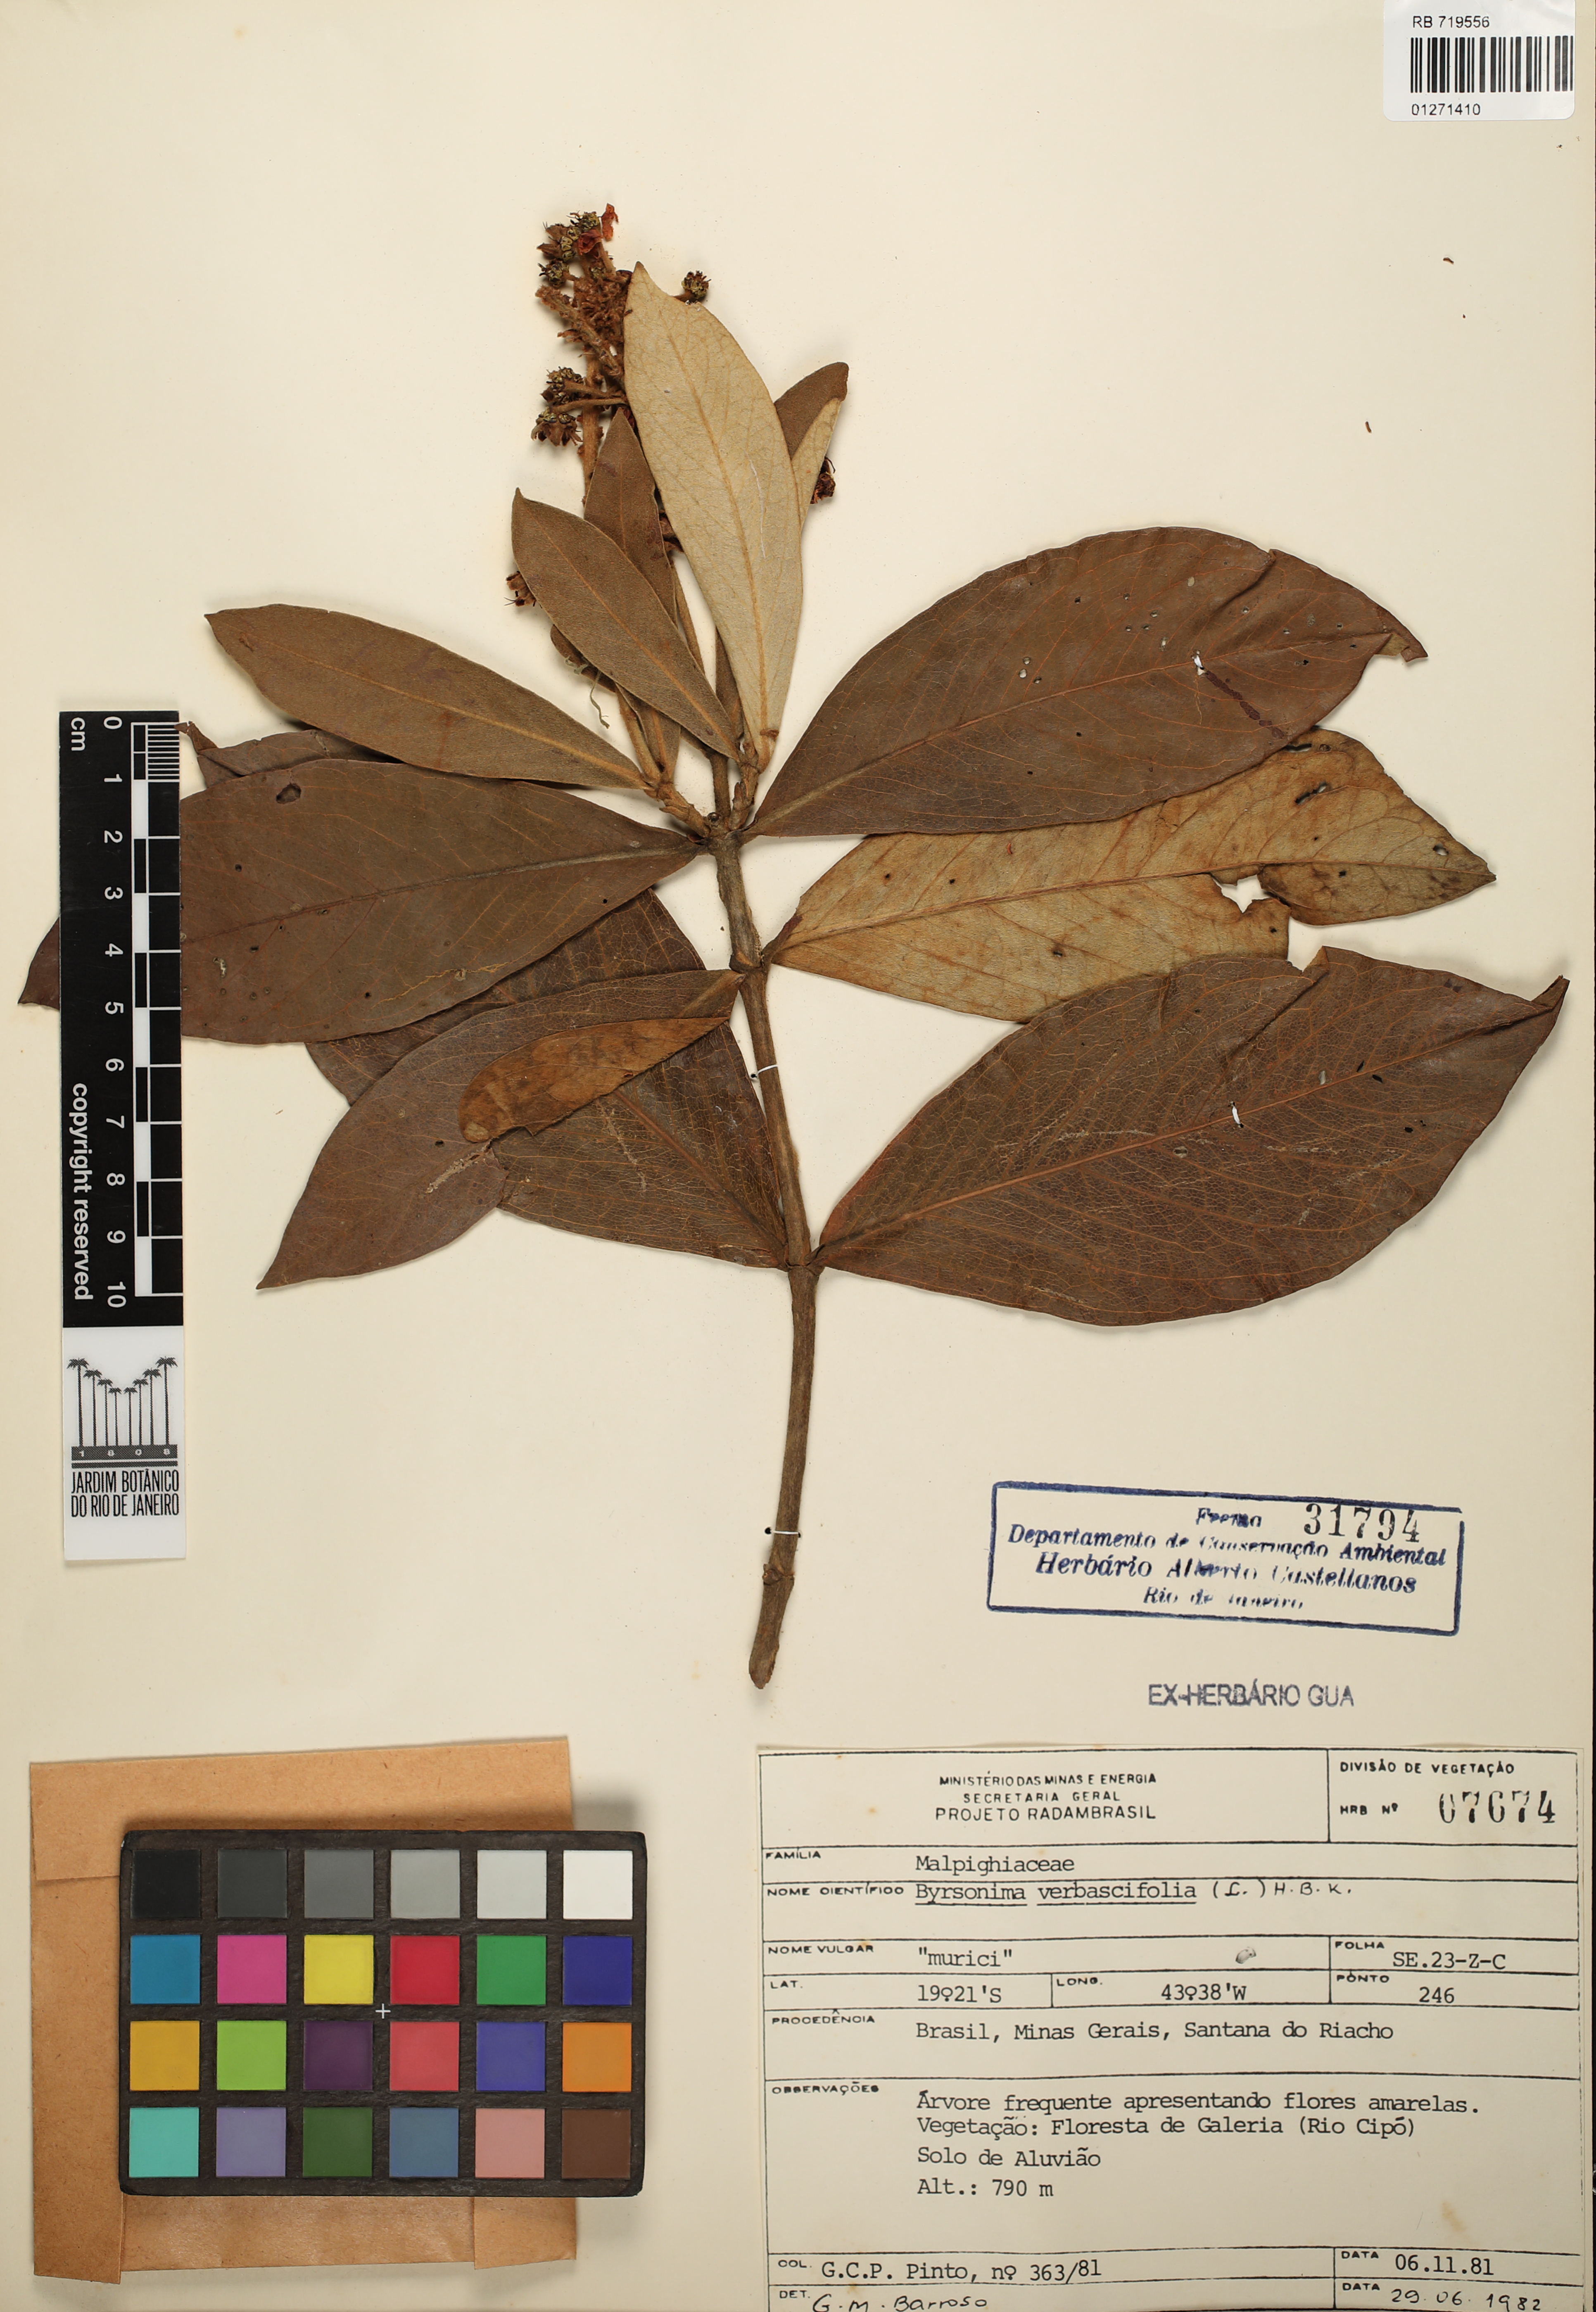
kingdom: Plantae
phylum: Tracheophyta
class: Magnoliopsida
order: Malpighiales
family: Malpighiaceae
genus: Byrsonima
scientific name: Byrsonima verbascifolia
